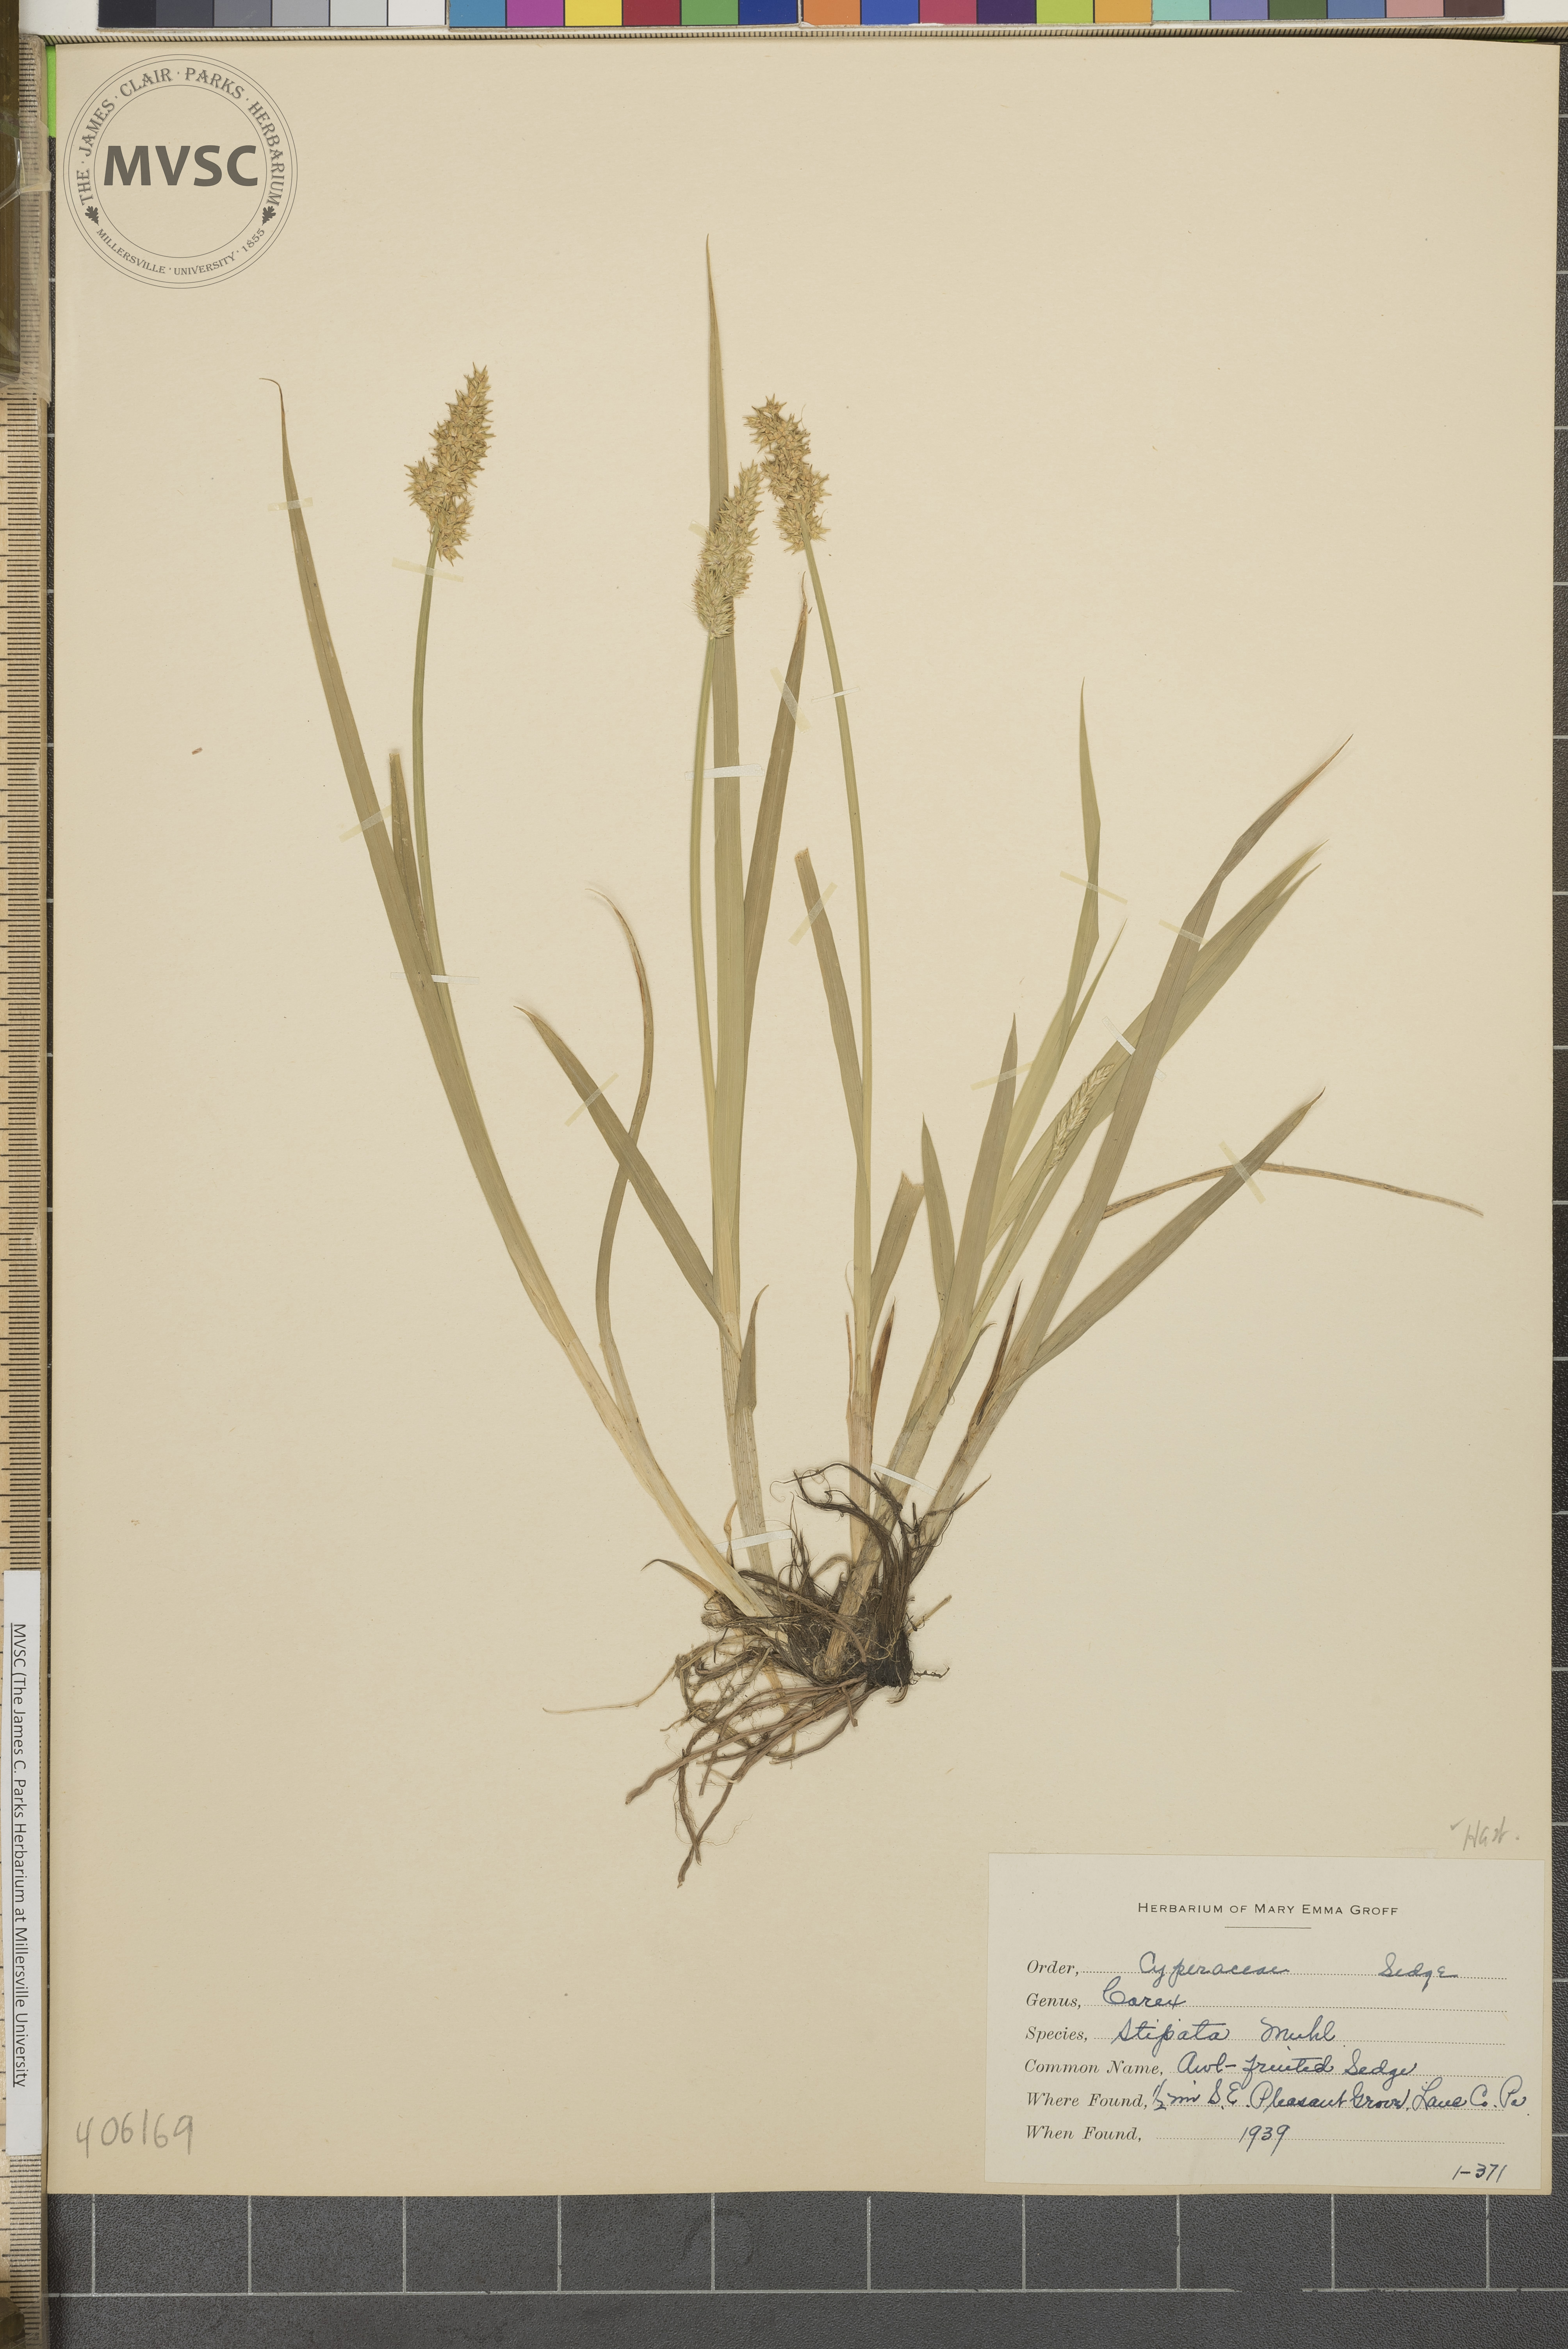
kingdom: Plantae
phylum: Tracheophyta
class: Liliopsida
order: Poales
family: Cyperaceae
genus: Carex
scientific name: Carex stipata
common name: Awl-fruited Sedge
